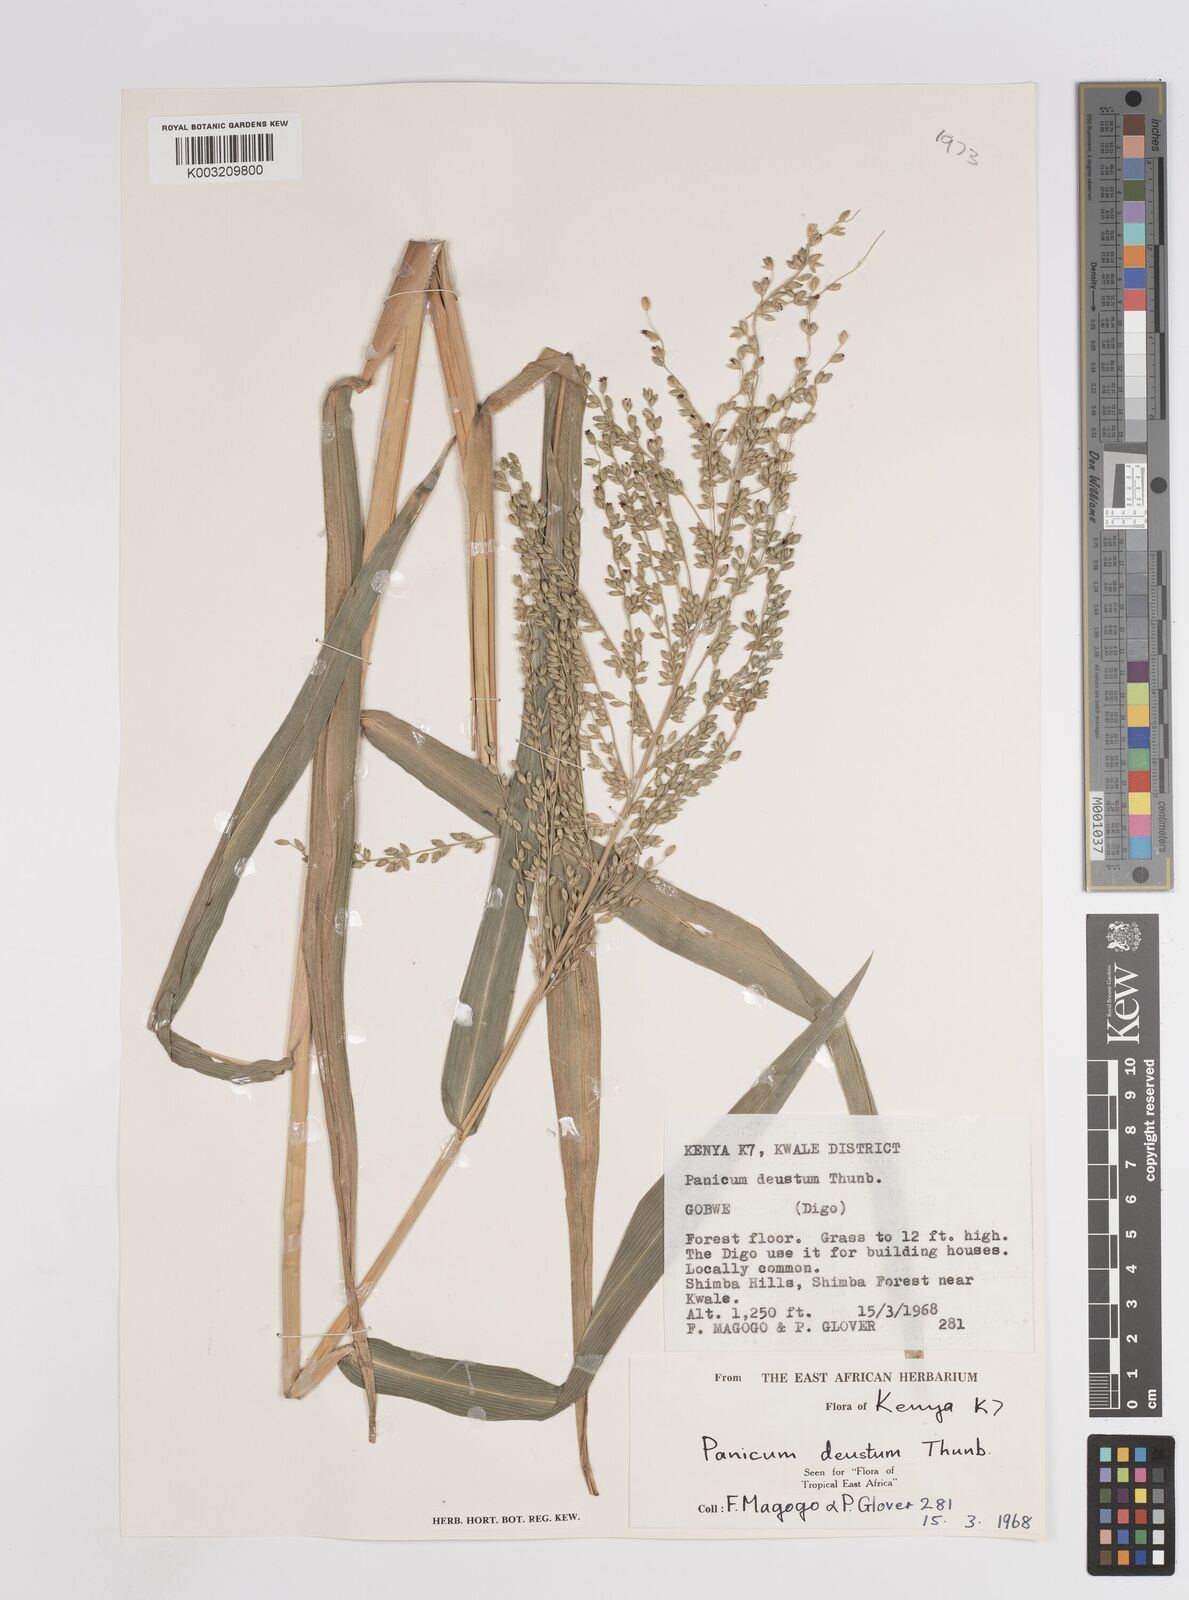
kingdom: Plantae
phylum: Tracheophyta
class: Liliopsida
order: Poales
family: Poaceae
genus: Panicum
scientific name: Panicum deustum
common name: Reed panicum
